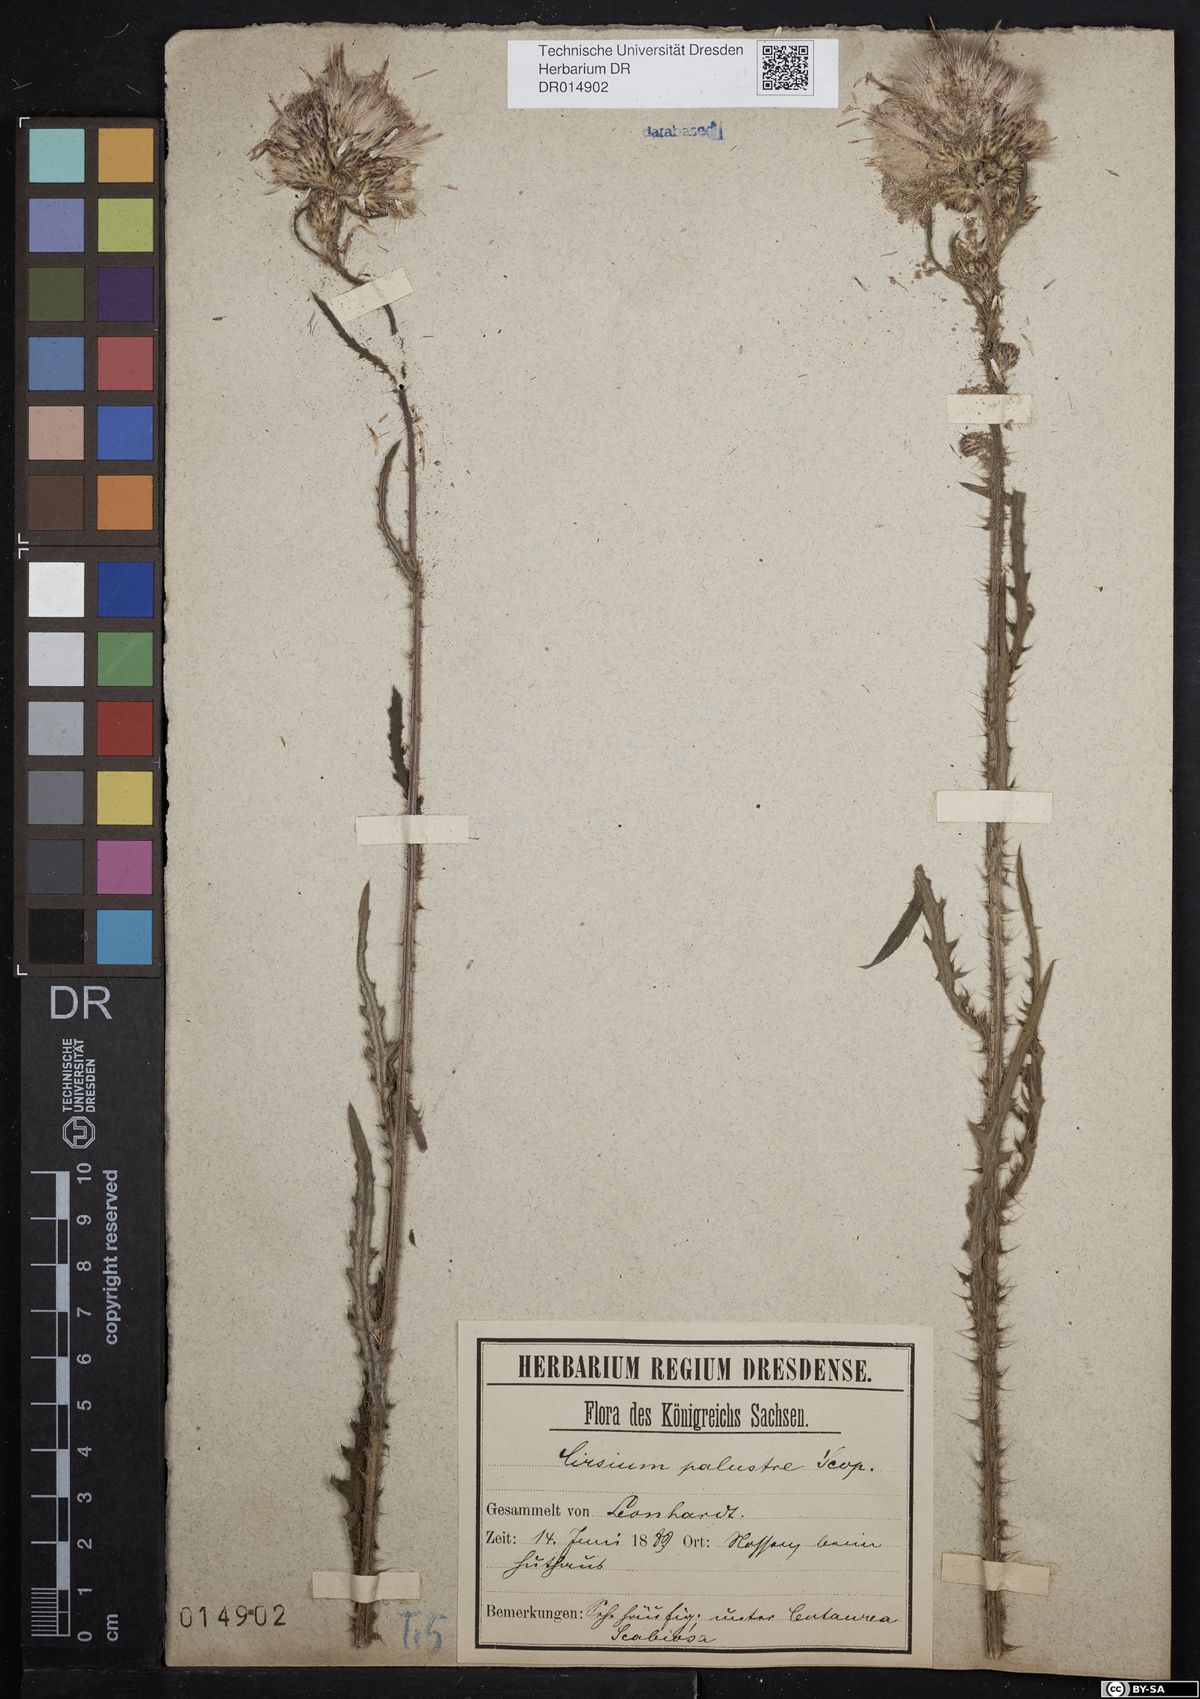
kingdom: Plantae
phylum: Tracheophyta
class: Magnoliopsida
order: Asterales
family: Asteraceae
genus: Cirsium
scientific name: Cirsium palustre
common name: Marsh thistle
